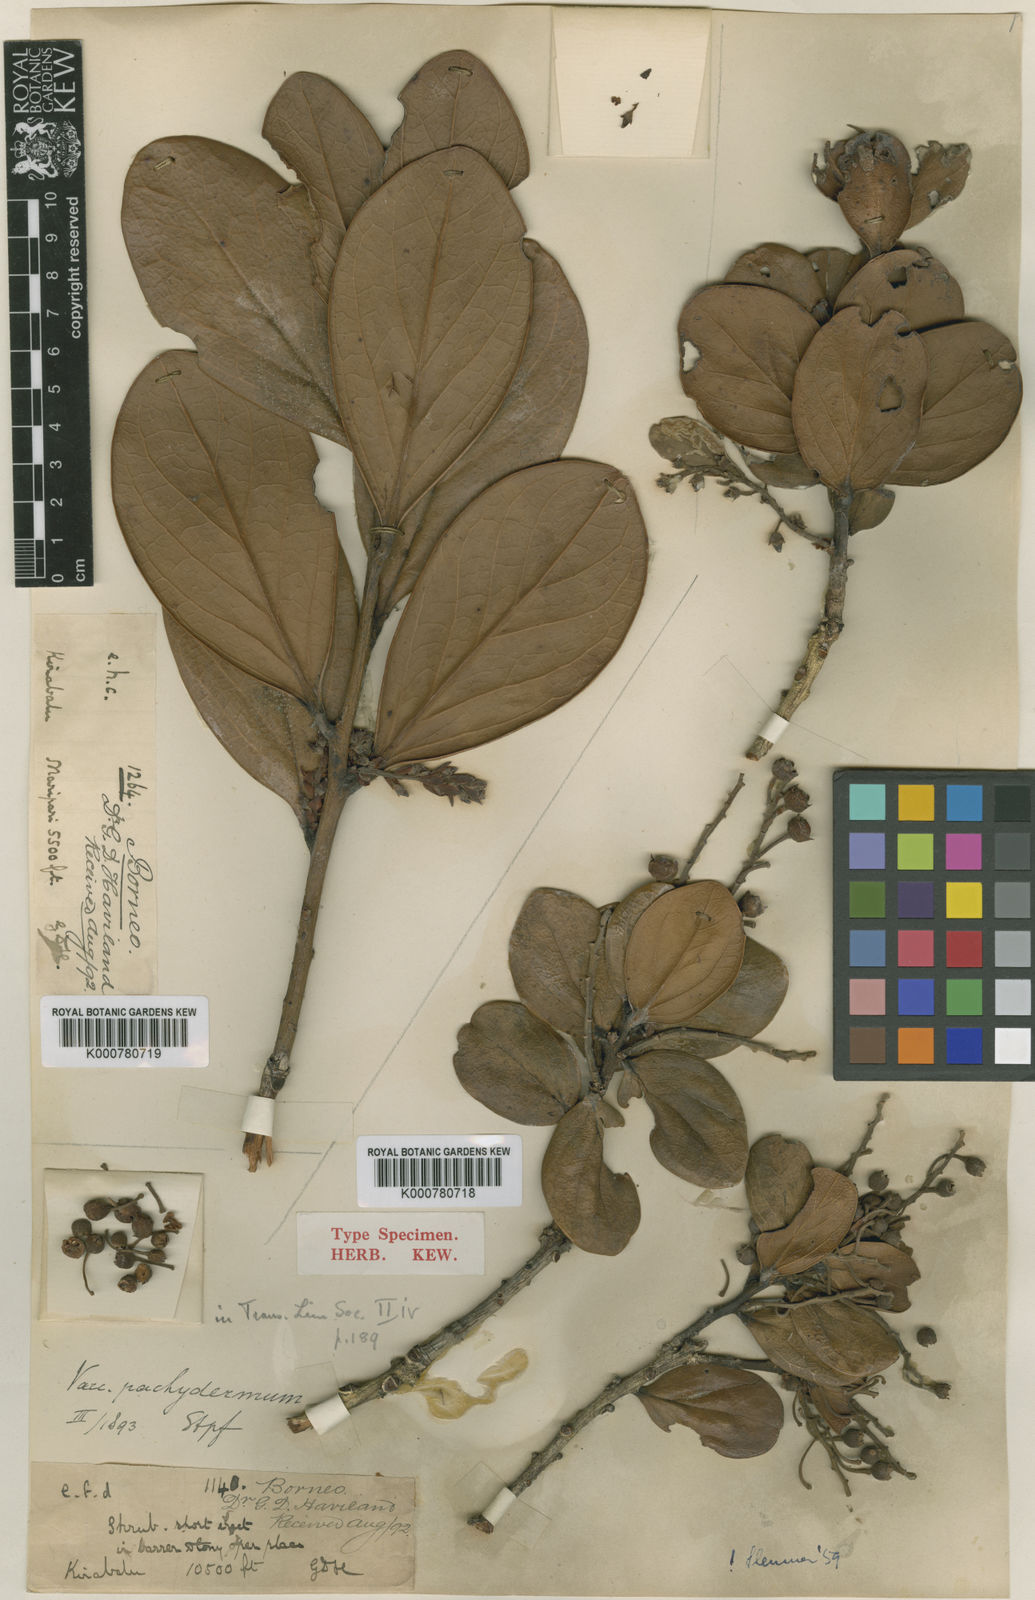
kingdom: Plantae
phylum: Tracheophyta
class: Magnoliopsida
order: Ericales
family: Ericaceae
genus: Vaccinium
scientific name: Vaccinium pachydermum
